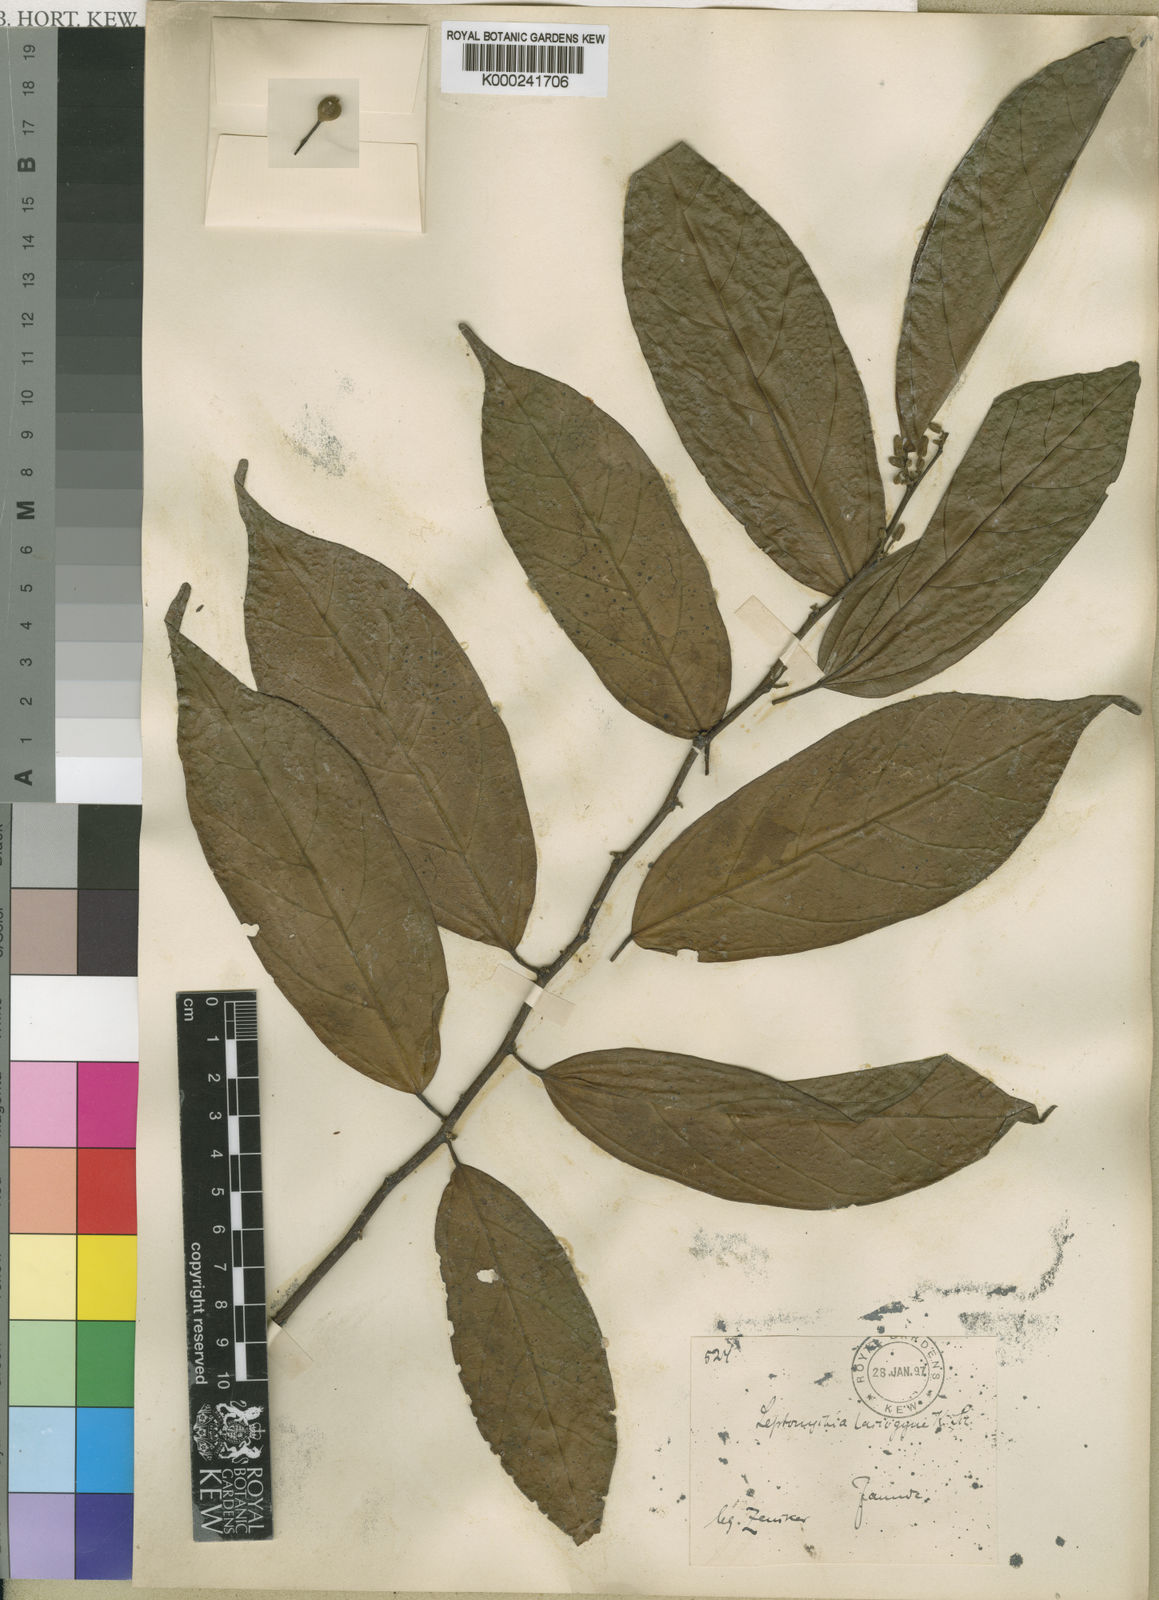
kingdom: Plantae
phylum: Tracheophyta
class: Magnoliopsida
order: Malvales
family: Malvaceae
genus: Leptonychia
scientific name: Leptonychia lasiogyne
